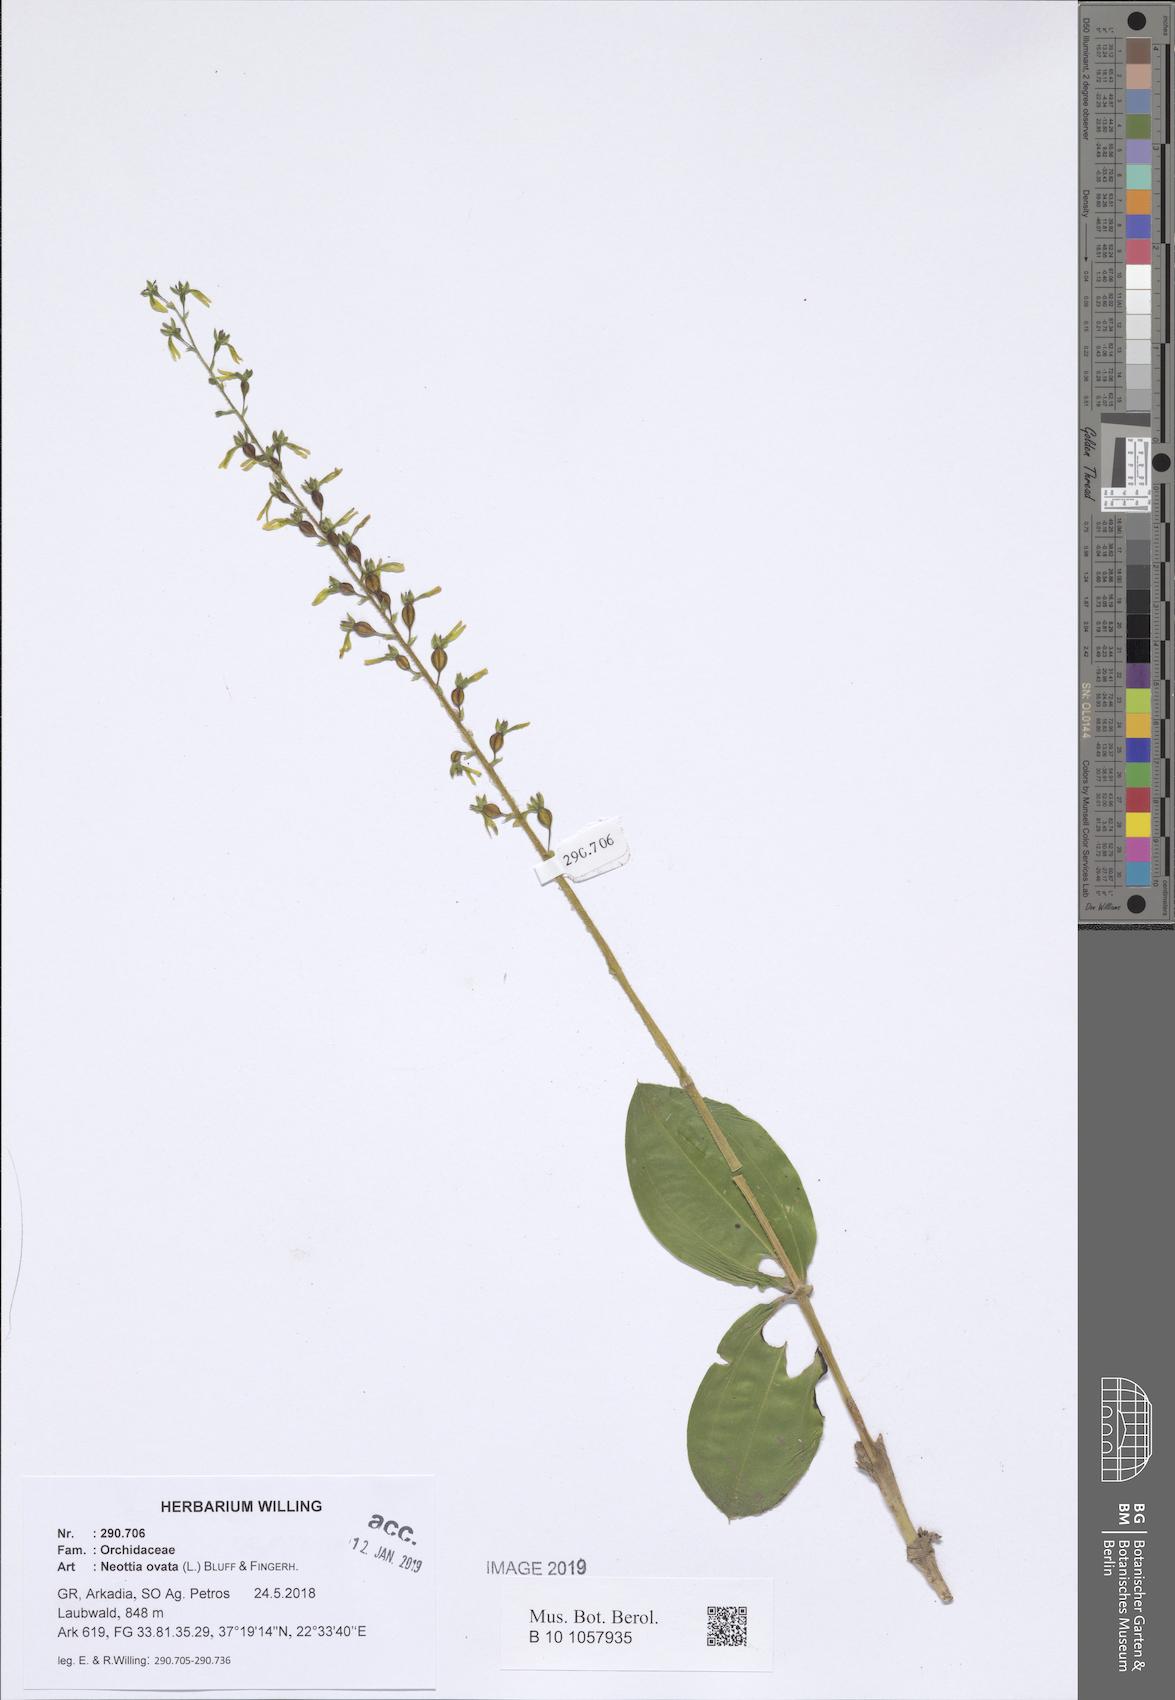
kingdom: Plantae
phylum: Tracheophyta
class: Liliopsida
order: Asparagales
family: Orchidaceae
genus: Neottia
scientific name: Neottia ovata
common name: Common twayblade
